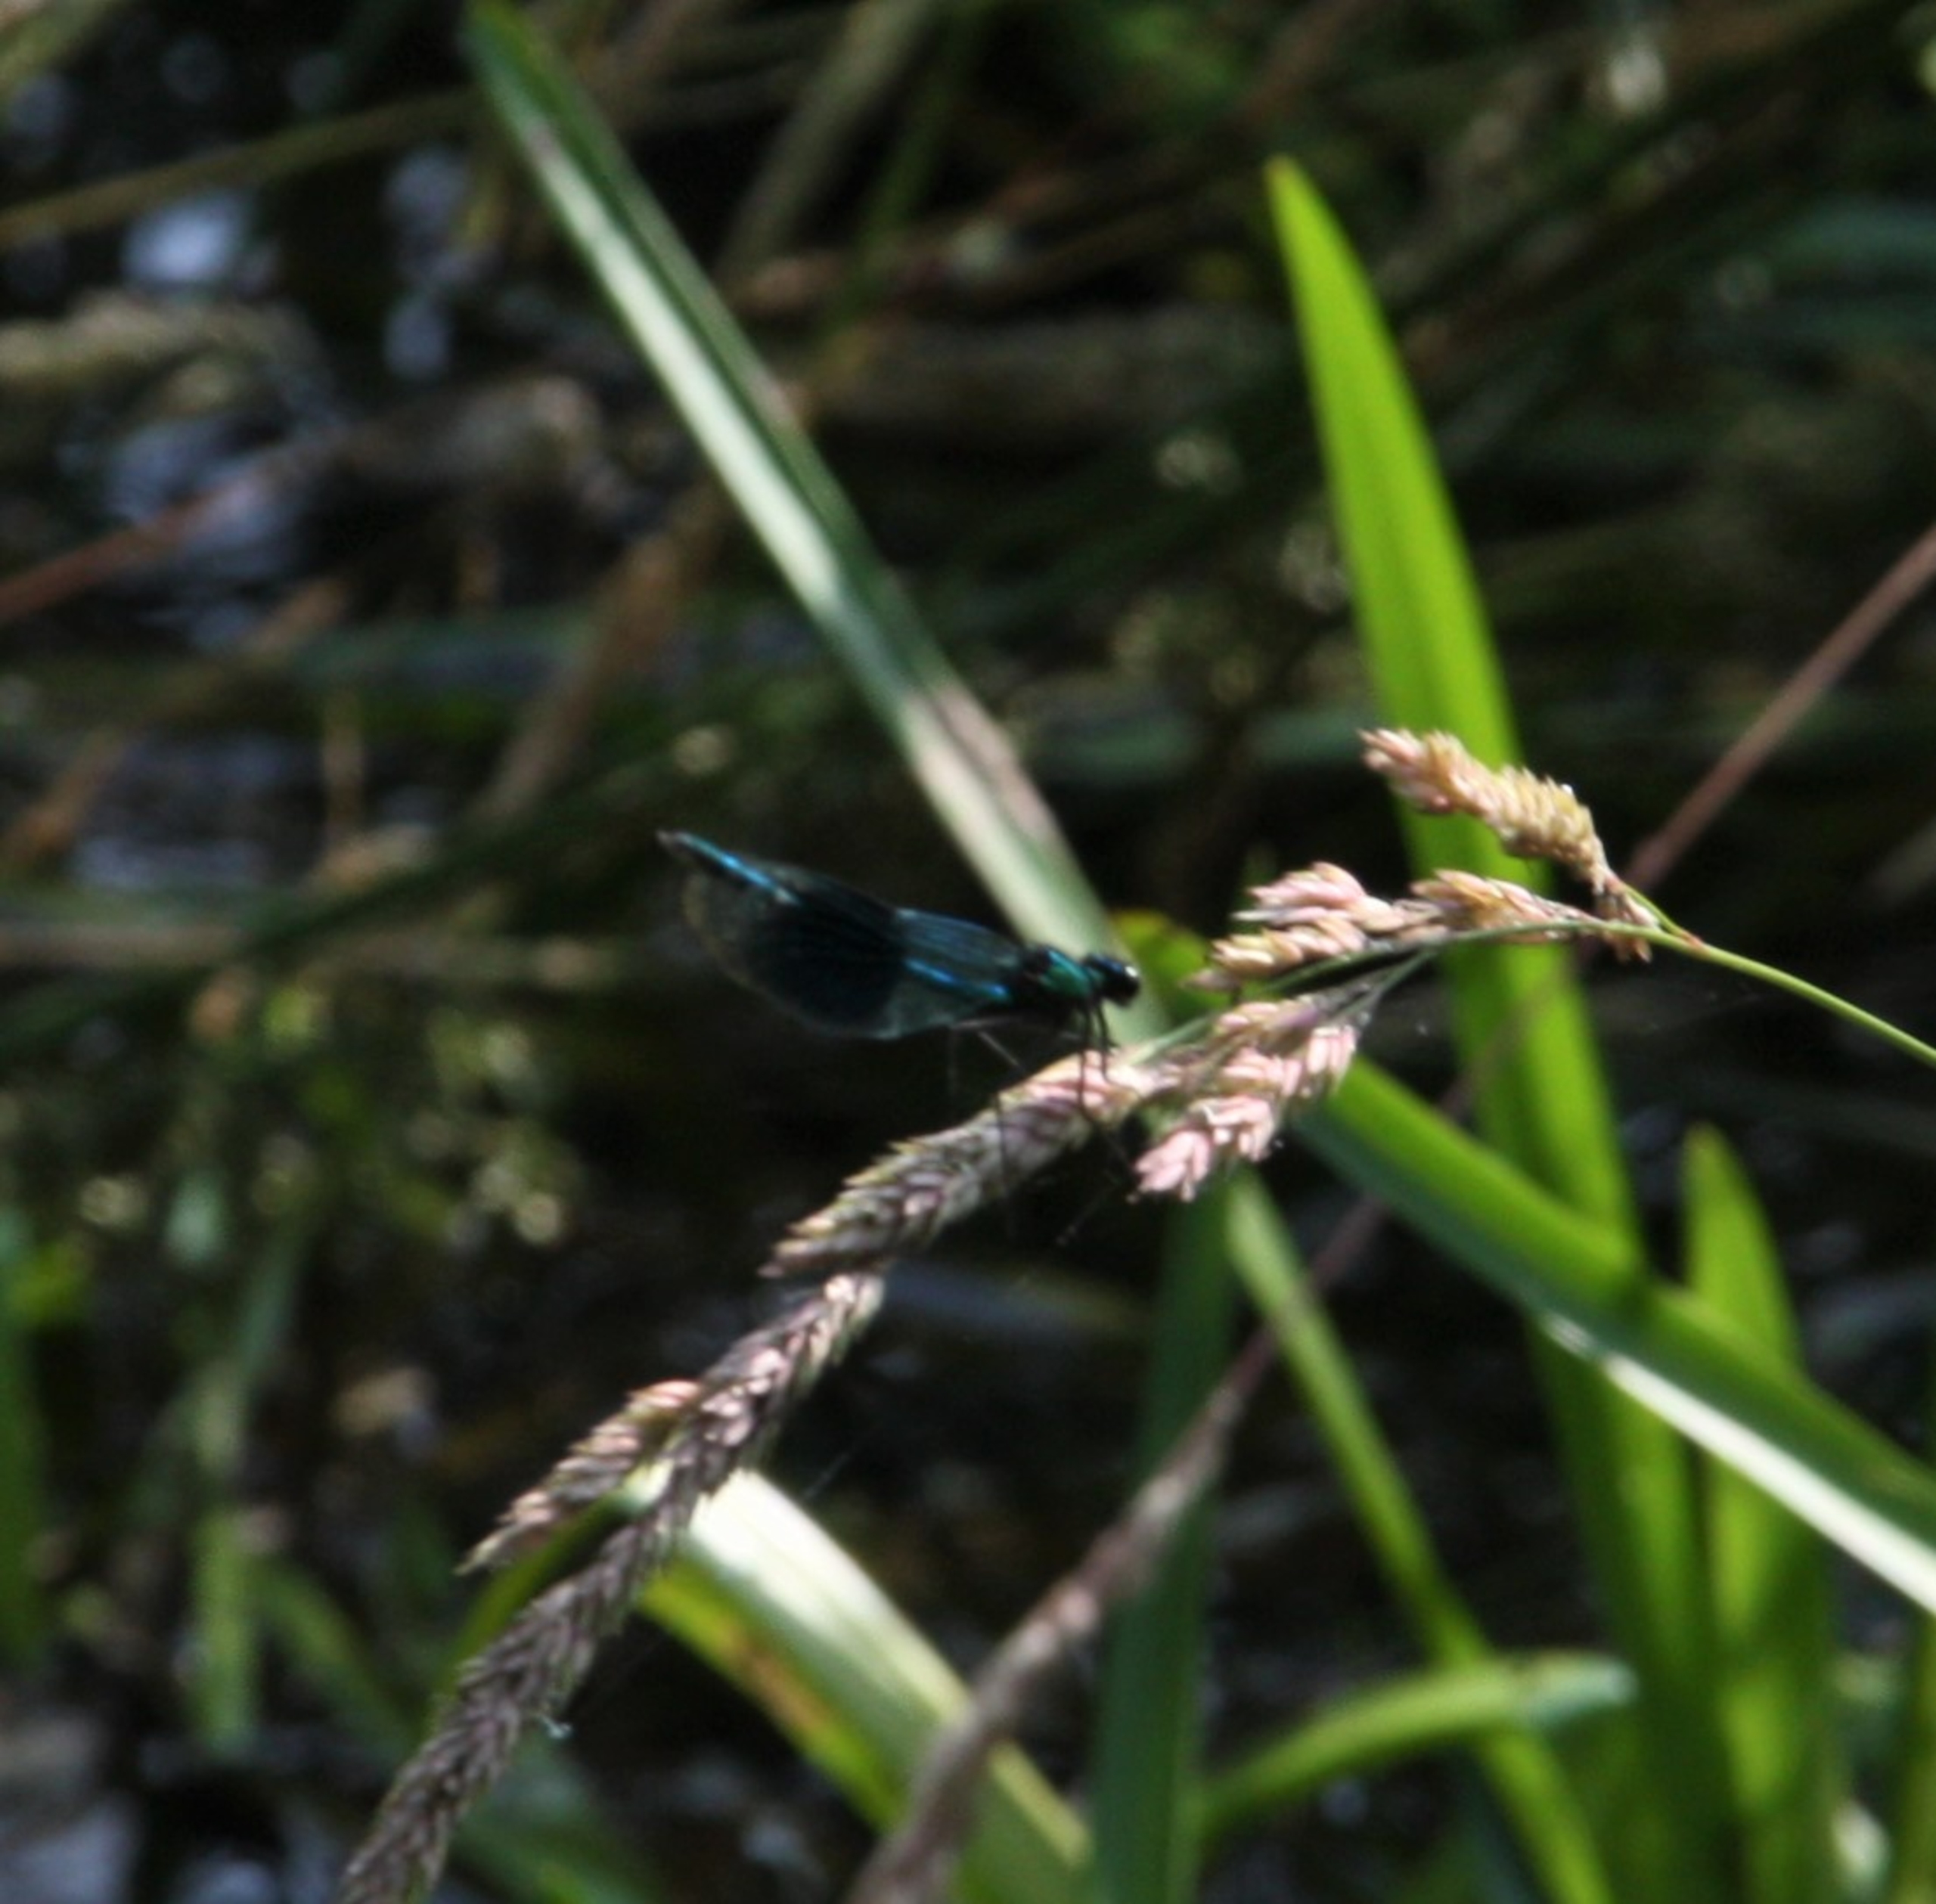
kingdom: Animalia
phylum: Arthropoda
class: Insecta
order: Odonata
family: Calopterygidae
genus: Calopteryx
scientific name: Calopteryx splendens
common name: Blåbåndet pragtvandnymfe
